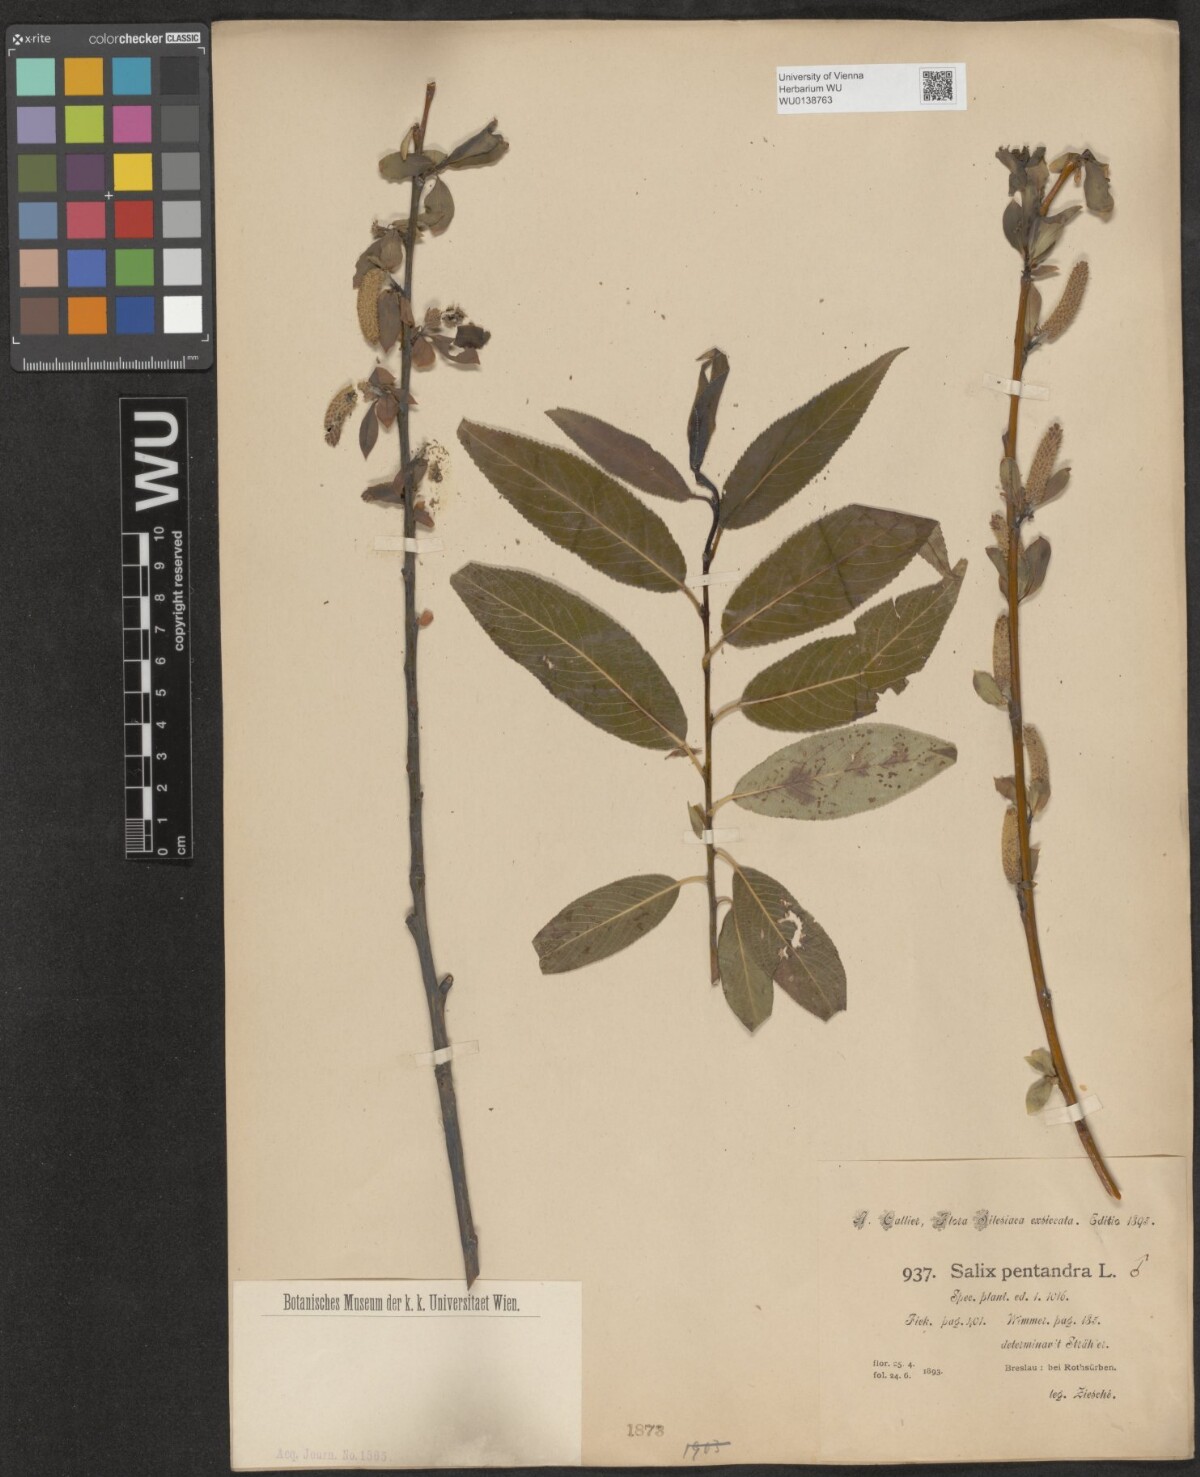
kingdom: Plantae
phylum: Tracheophyta
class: Magnoliopsida
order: Malpighiales
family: Salicaceae
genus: Salix
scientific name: Salix pentandra
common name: Bay willow
